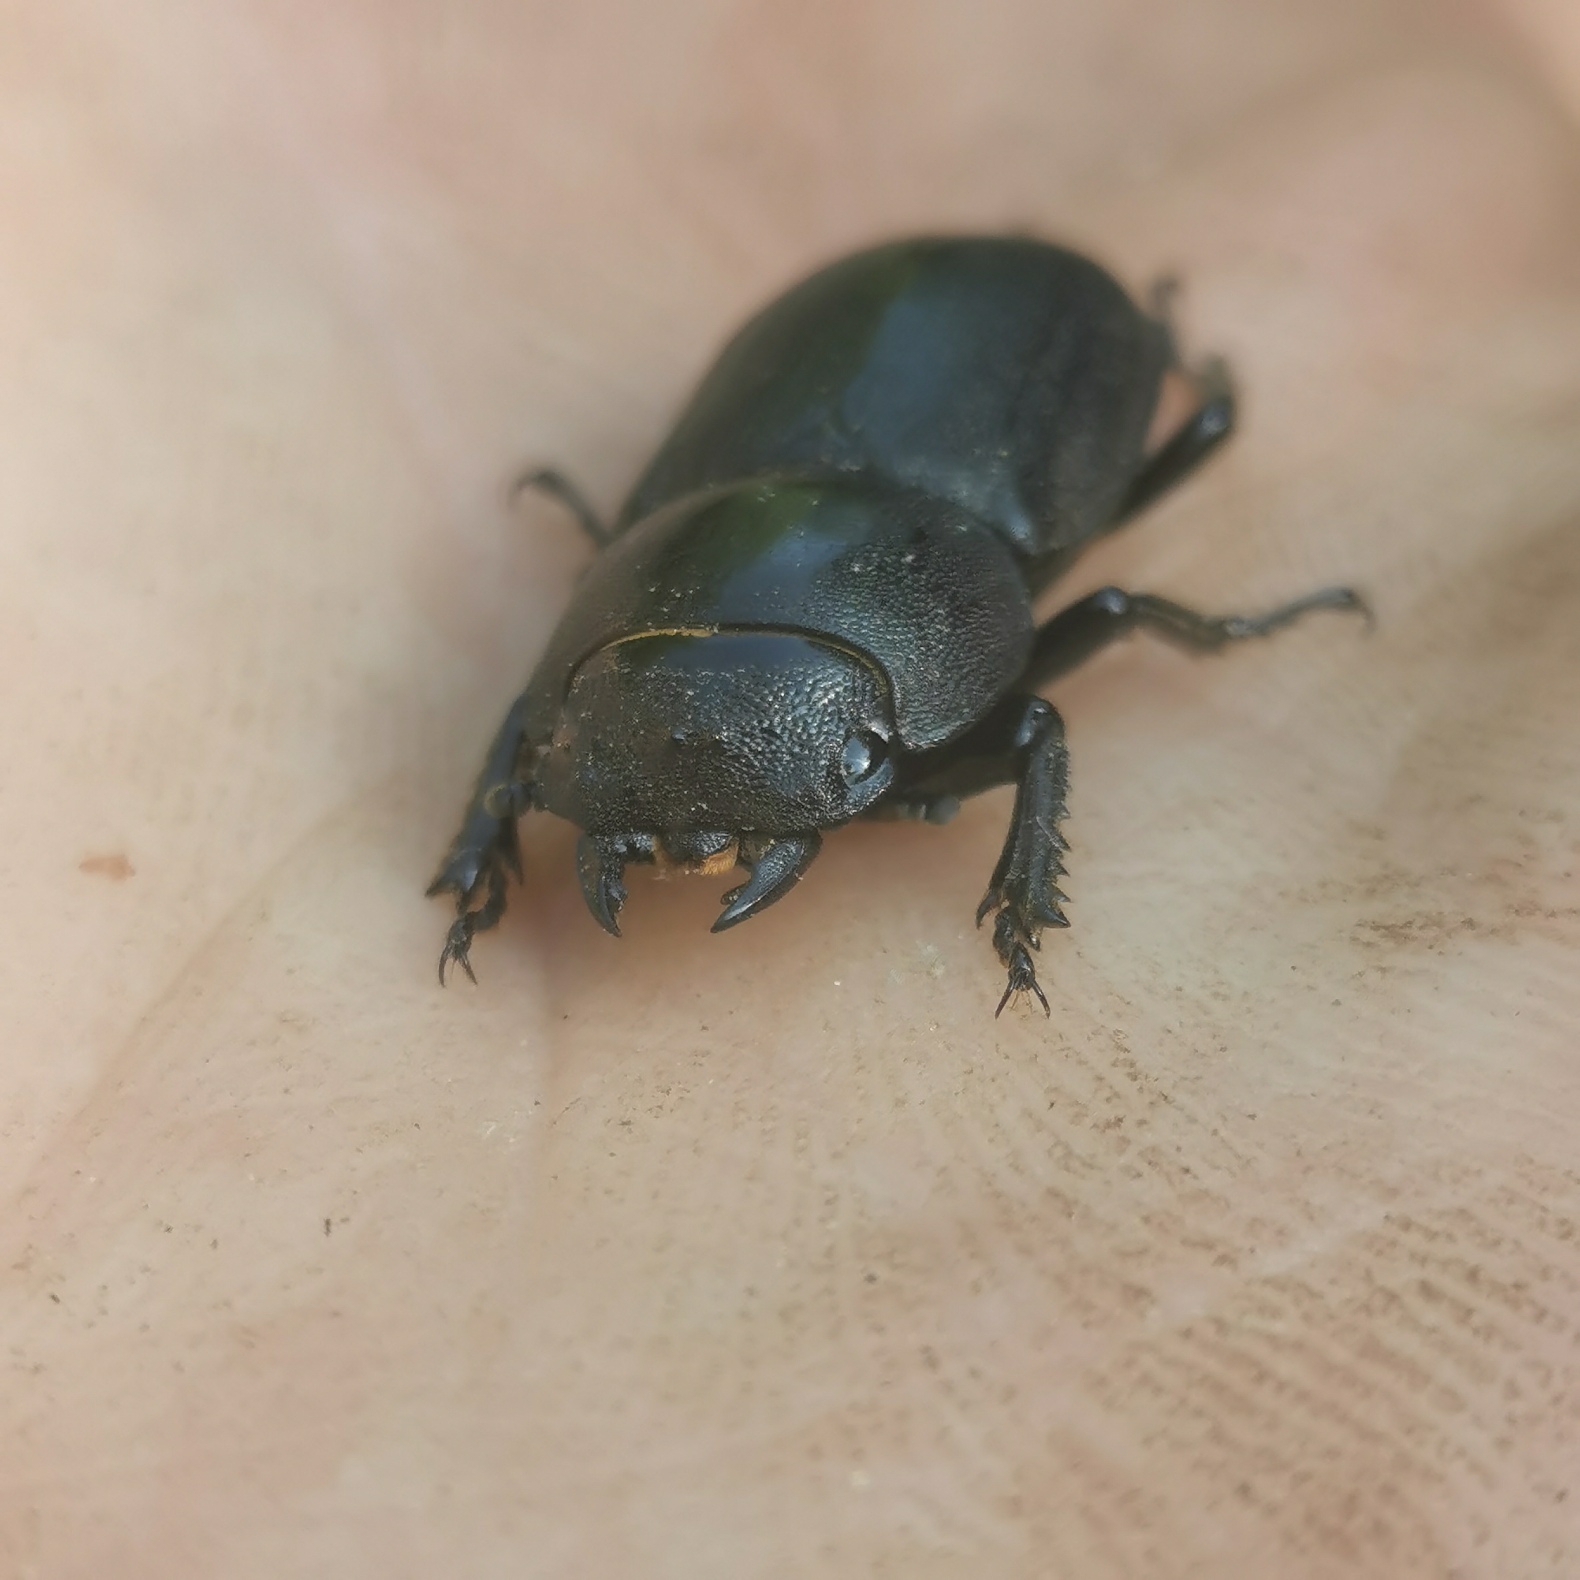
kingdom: Animalia
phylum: Arthropoda
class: Insecta
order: Coleoptera
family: Lucanidae
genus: Dorcus
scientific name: Dorcus parallelipipedus
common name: Bøghjort
